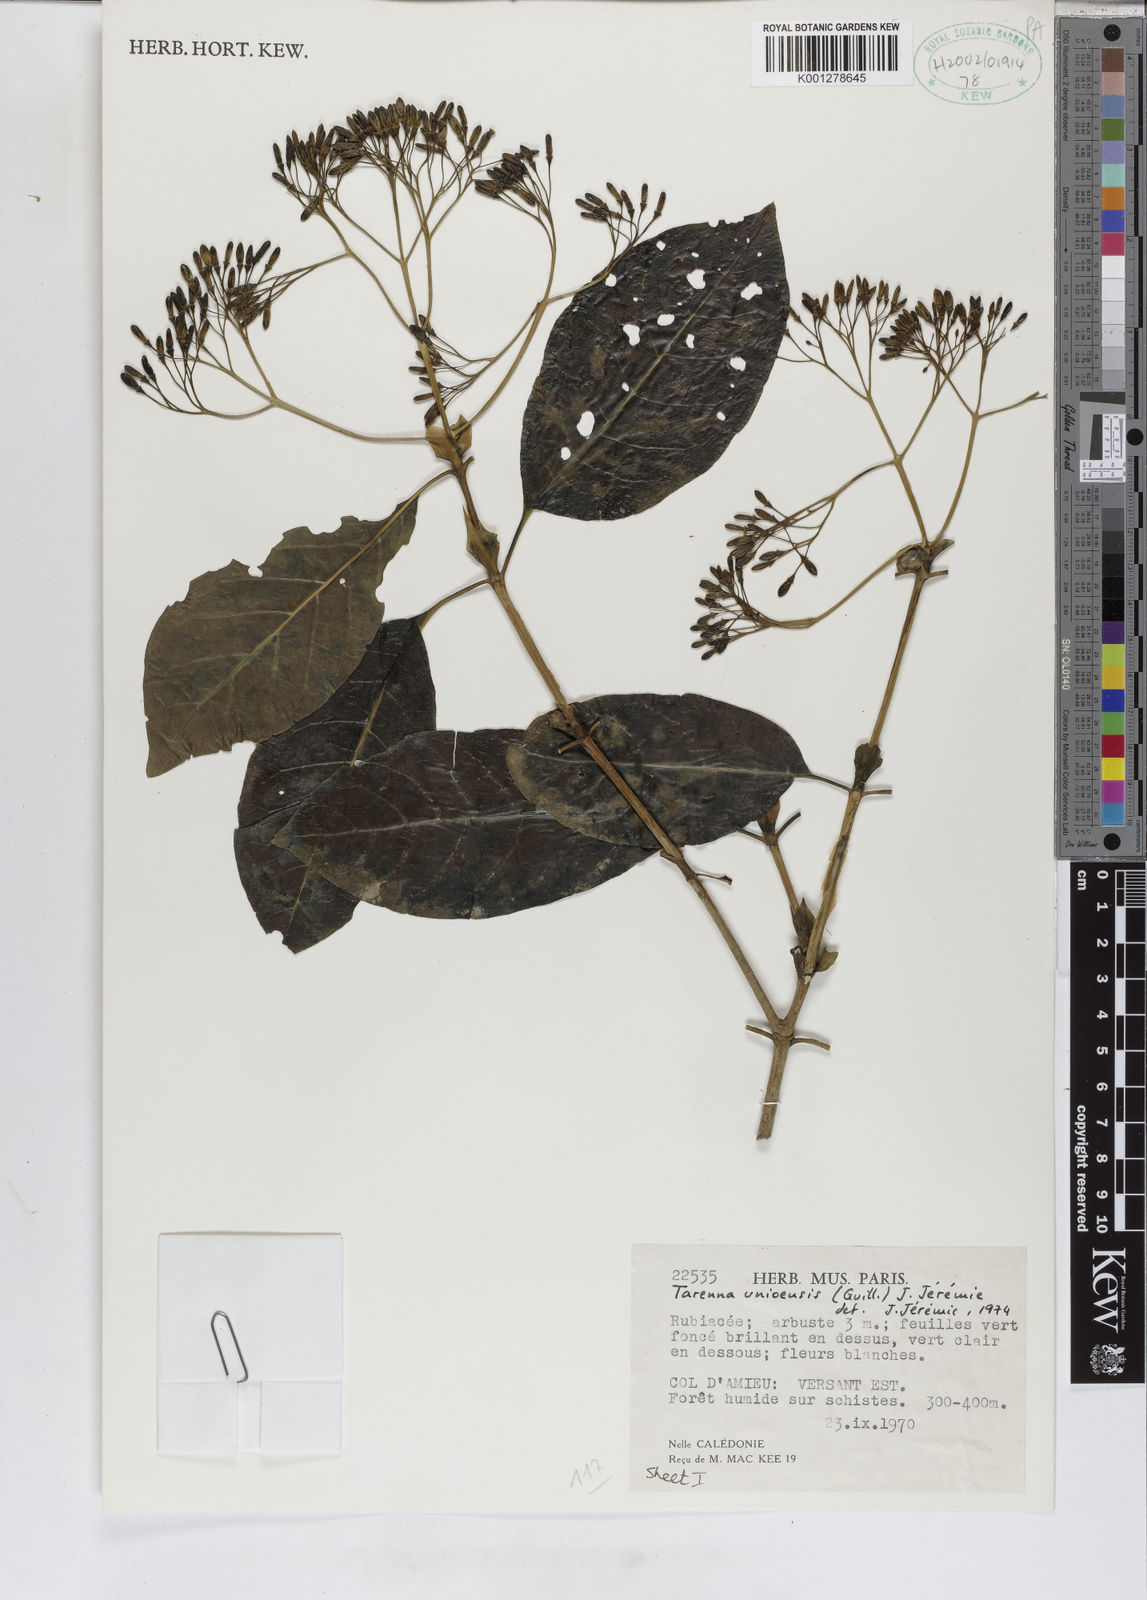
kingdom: Plantae
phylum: Tracheophyta
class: Magnoliopsida
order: Gentianales
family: Rubiaceae
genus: Tarenna
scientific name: Tarenna
